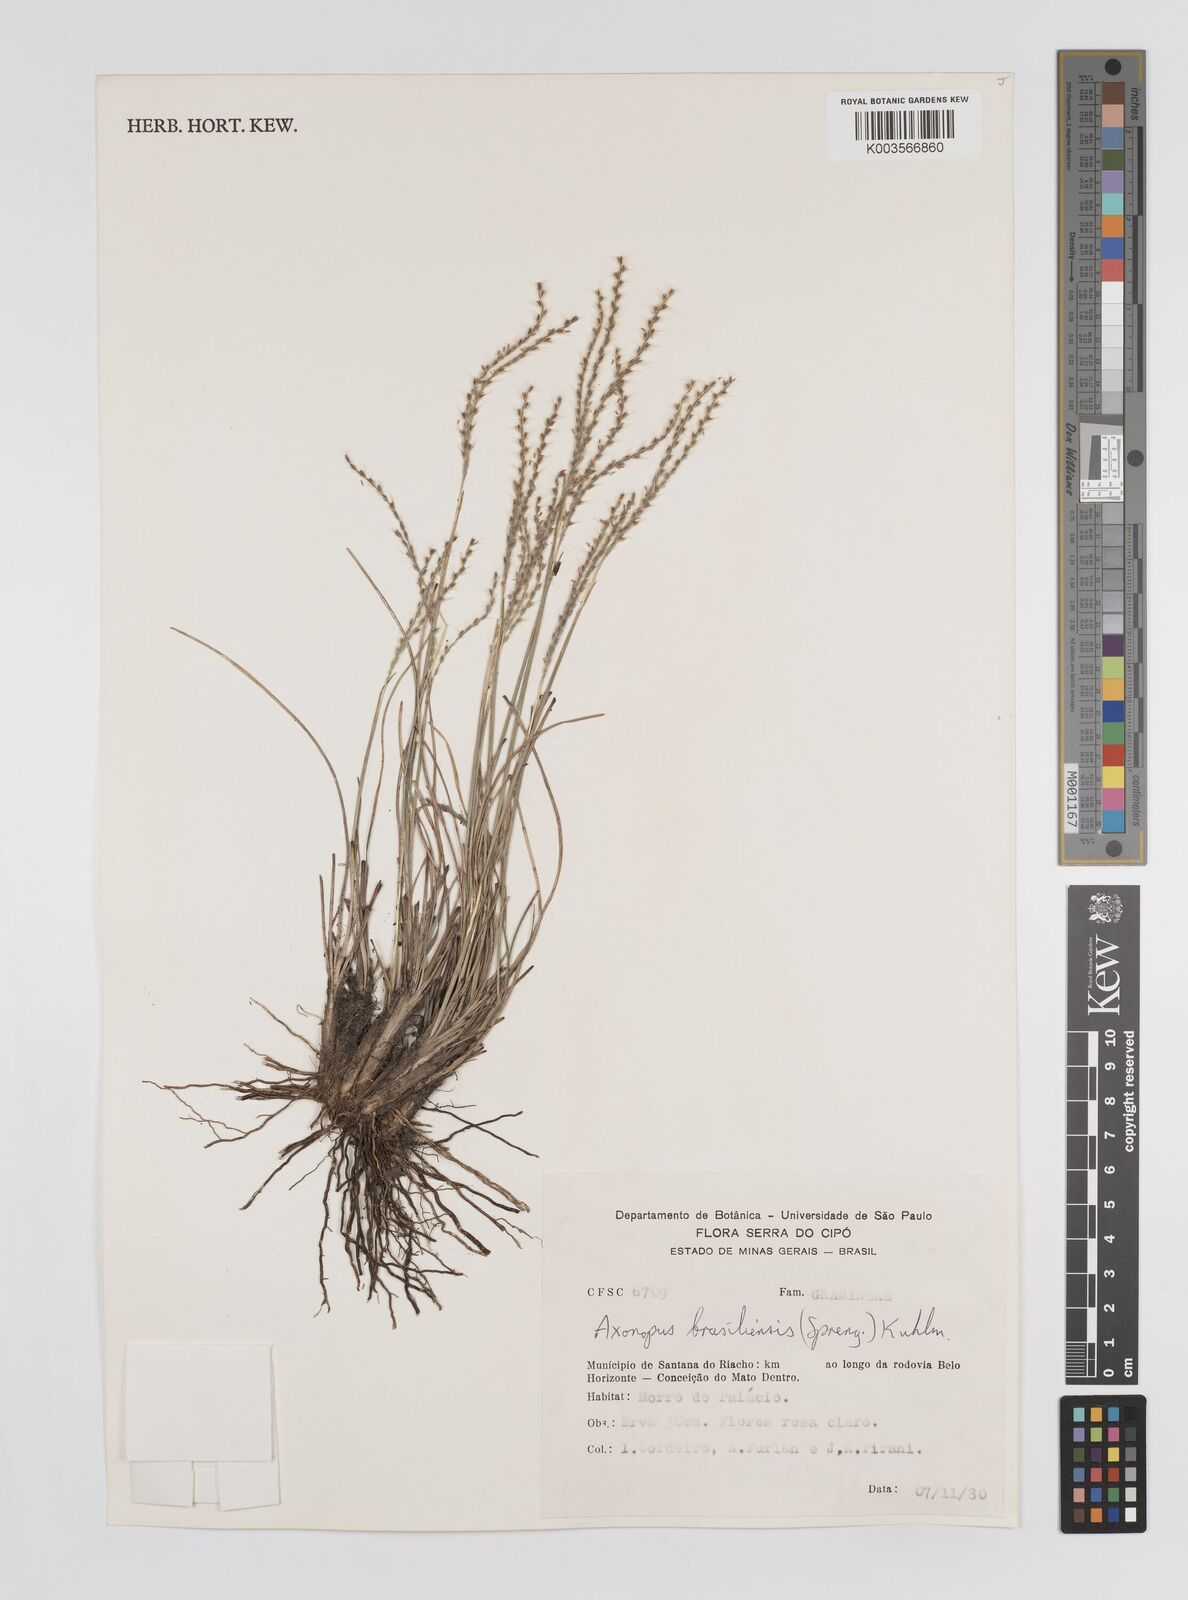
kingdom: Plantae
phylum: Tracheophyta
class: Liliopsida
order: Poales
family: Poaceae
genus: Axonopus
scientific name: Axonopus brasiliensis
